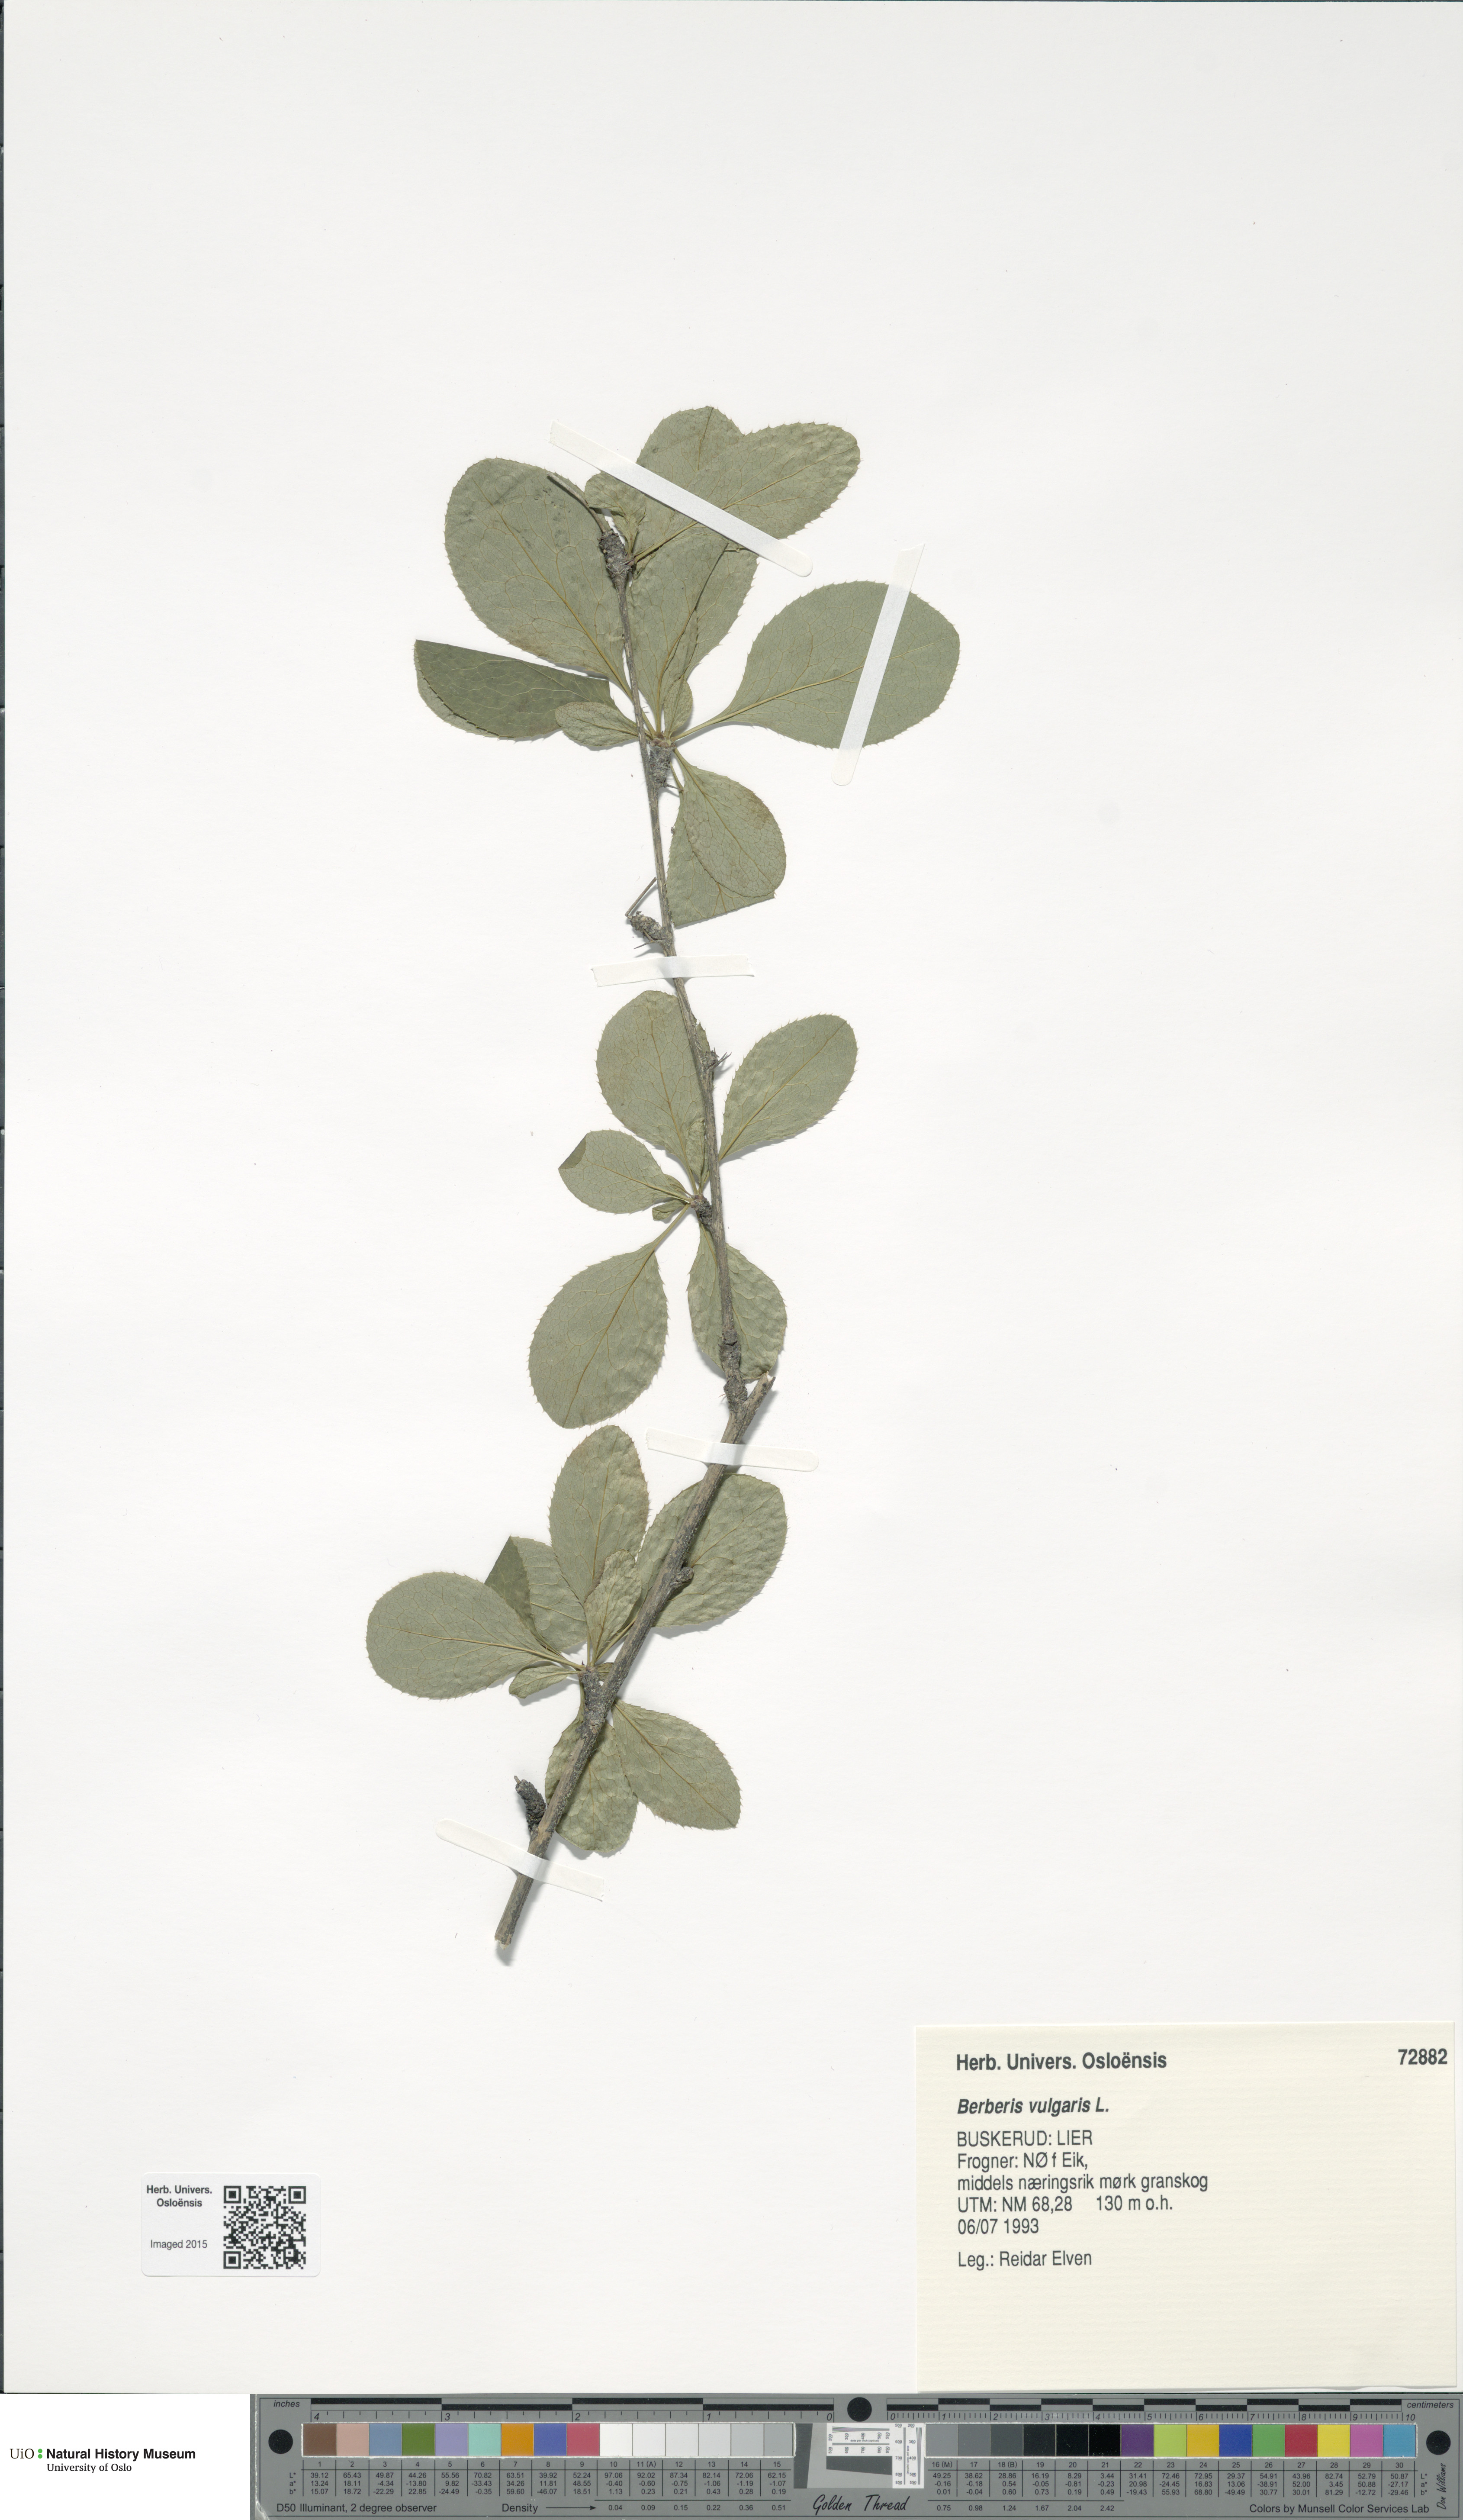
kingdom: Plantae
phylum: Tracheophyta
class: Magnoliopsida
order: Ranunculales
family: Berberidaceae
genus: Berberis
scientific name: Berberis vulgaris
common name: Barberry
